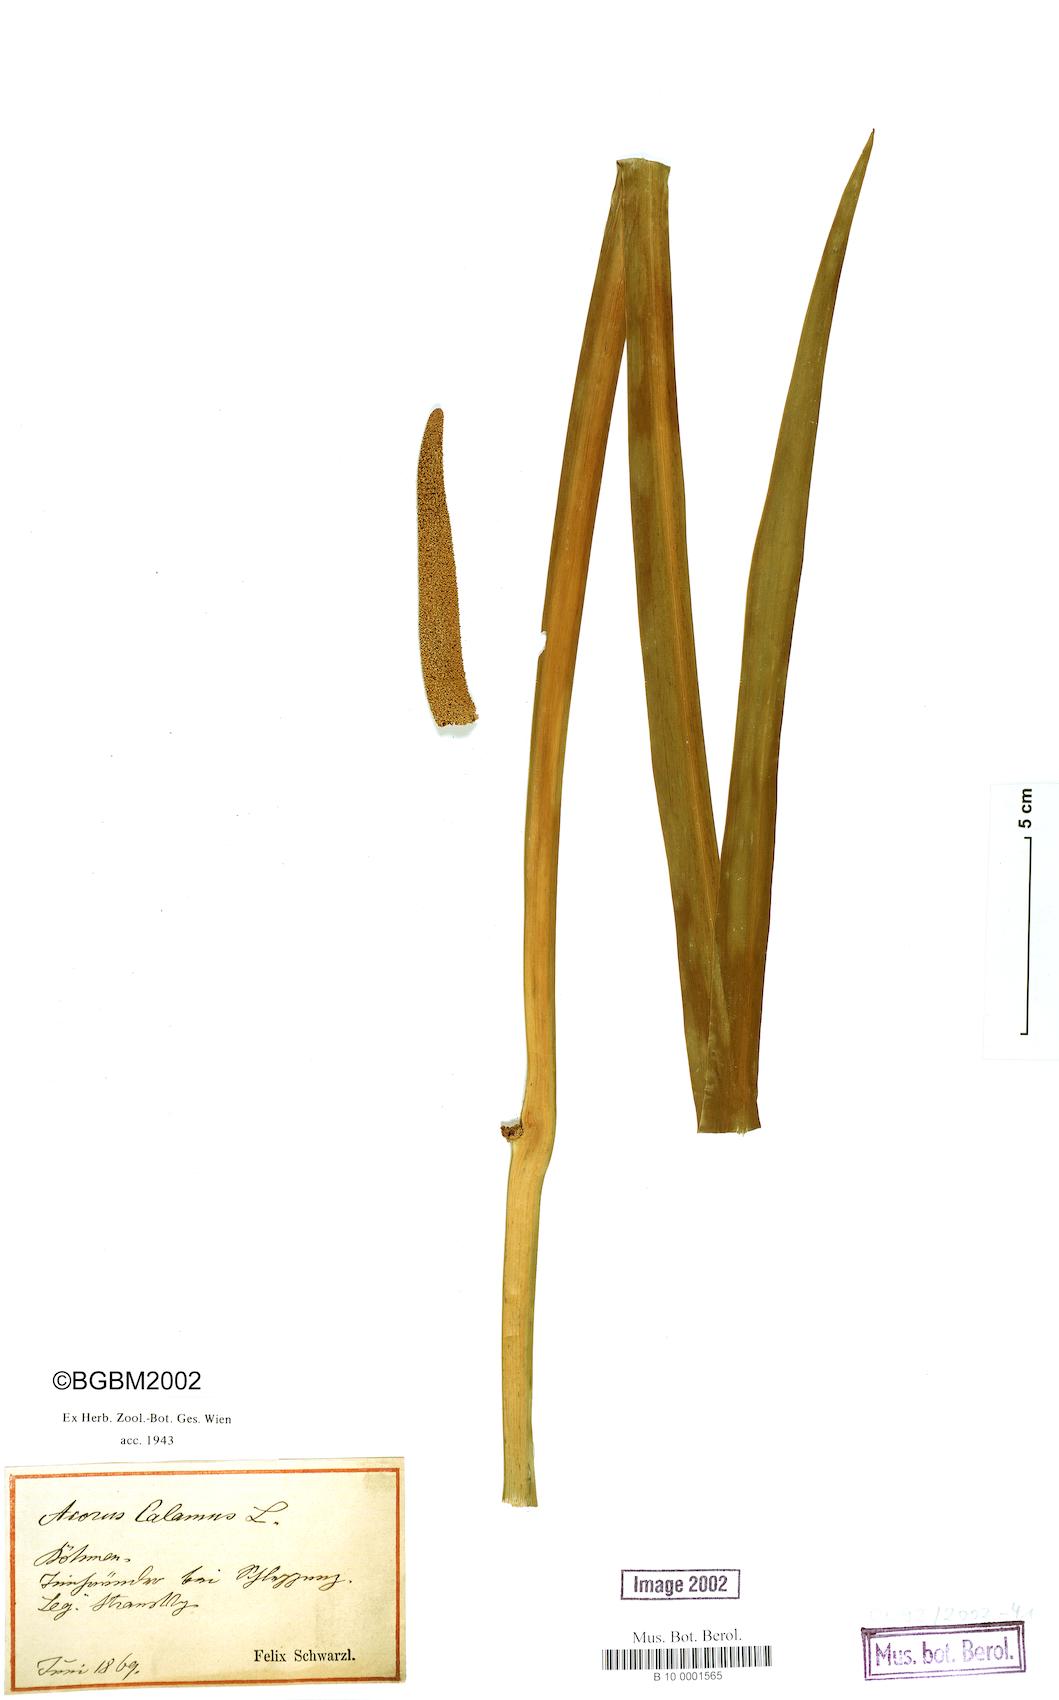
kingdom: Plantae
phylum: Tracheophyta
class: Liliopsida
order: Acorales
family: Acoraceae
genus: Acorus
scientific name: Acorus calamus
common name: Sweet-flag
